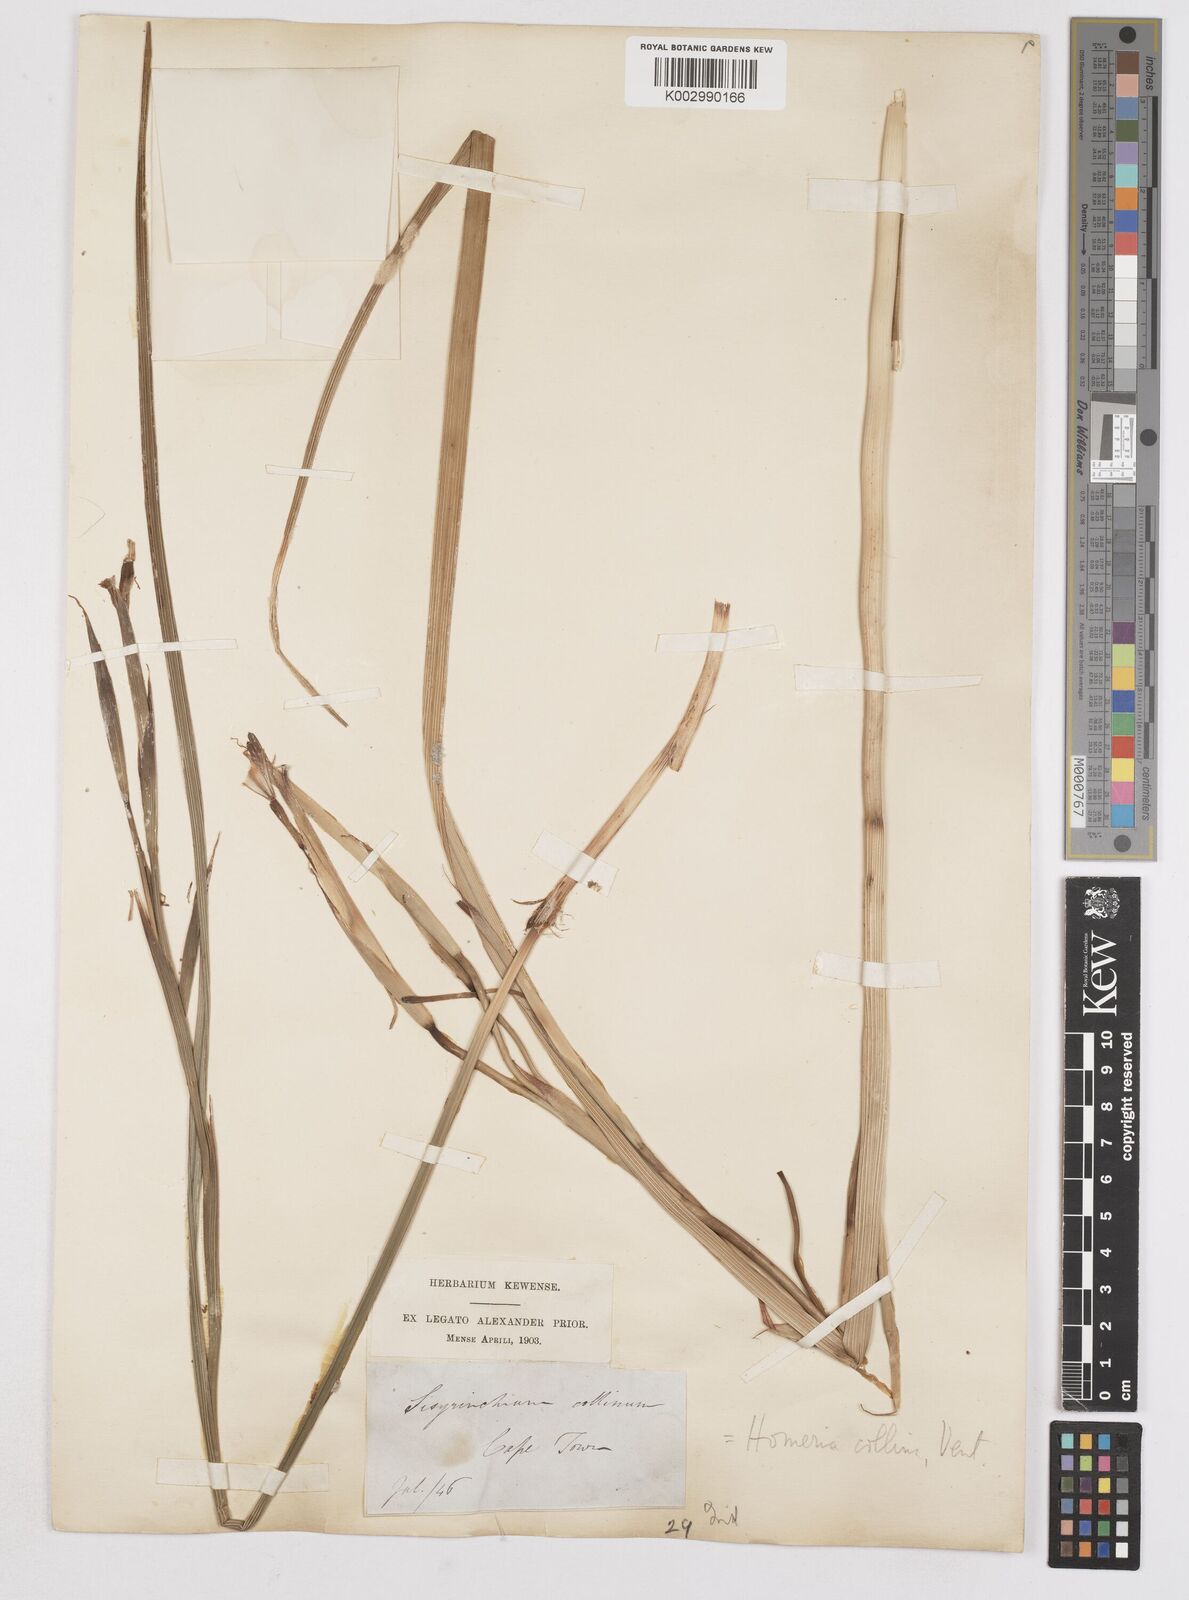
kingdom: Plantae
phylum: Tracheophyta
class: Liliopsida
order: Asparagales
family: Iridaceae
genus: Moraea
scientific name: Moraea collina
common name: Cape-tulip
